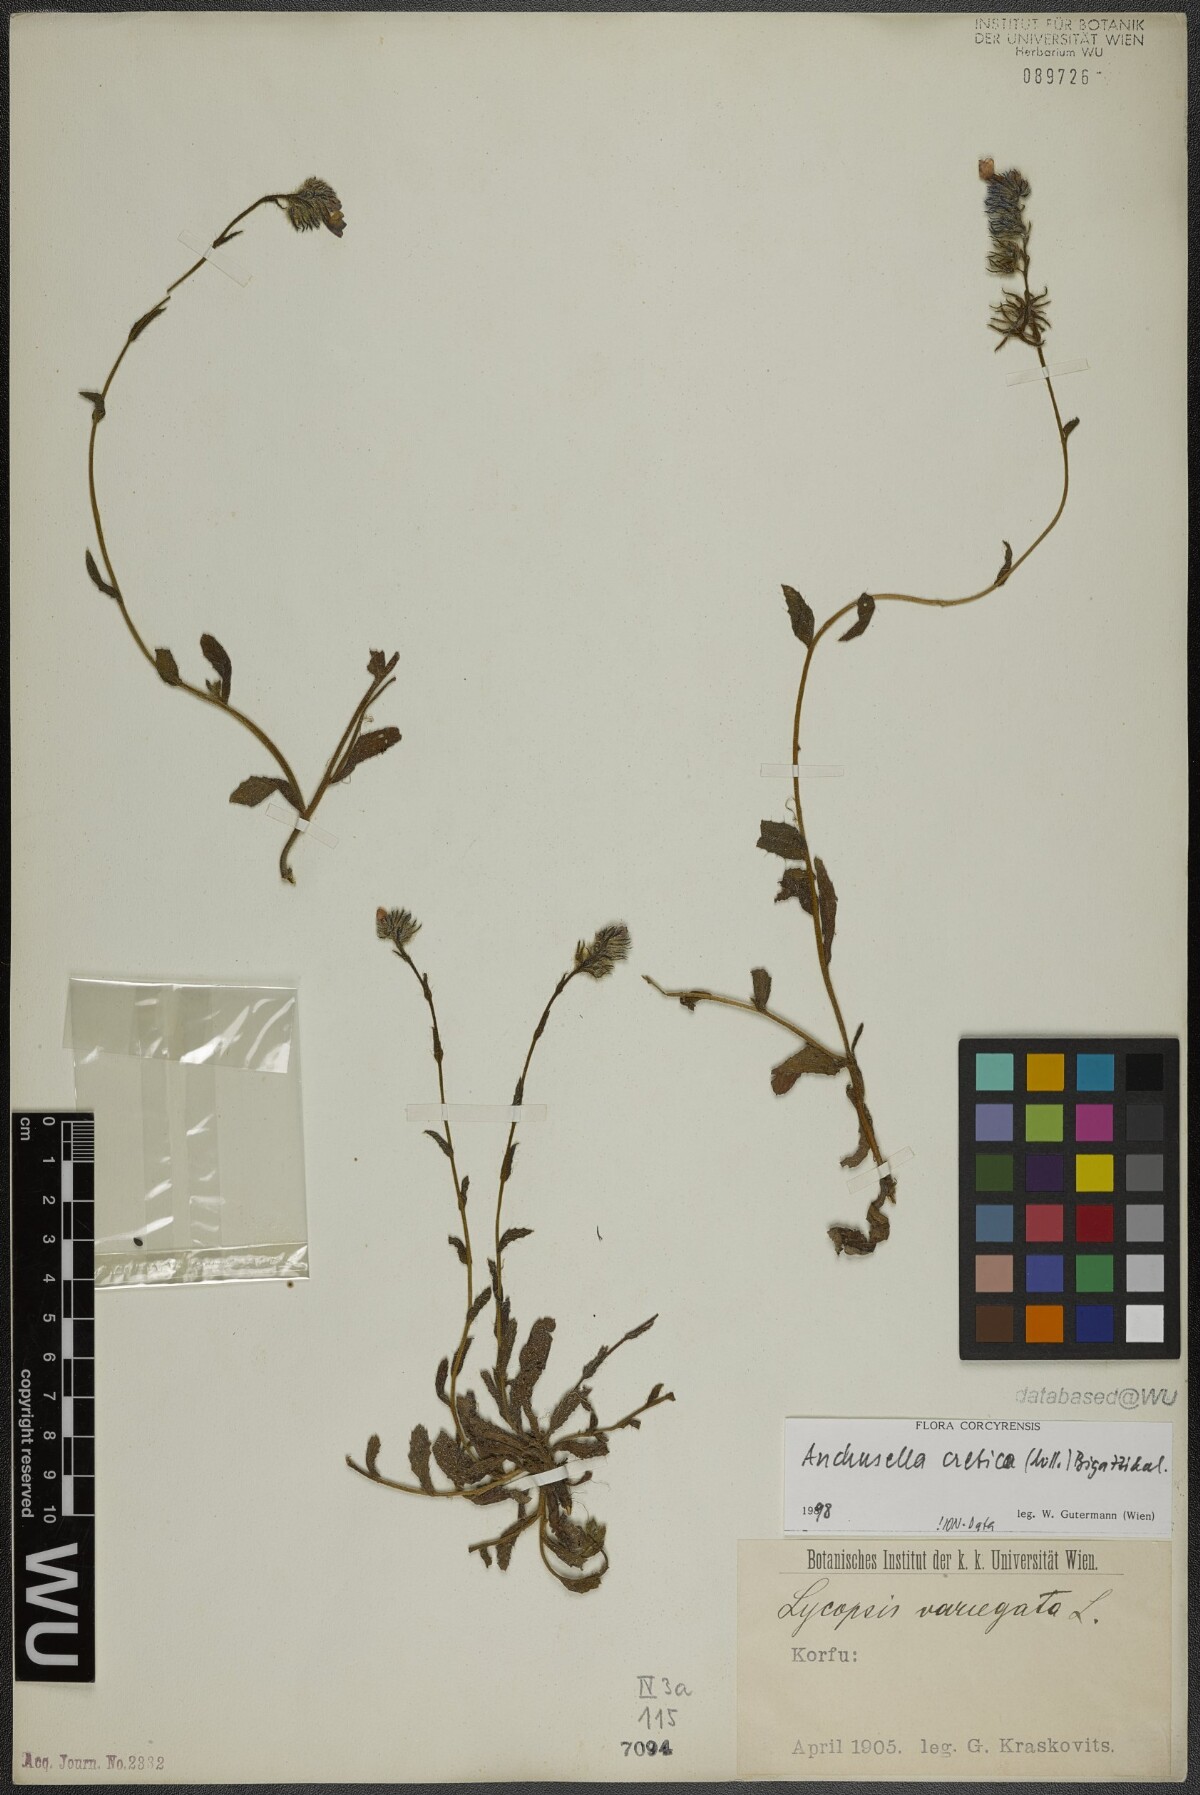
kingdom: Plantae
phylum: Tracheophyta
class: Magnoliopsida
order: Boraginales
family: Boraginaceae
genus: Anchusella
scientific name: Anchusella cretica
